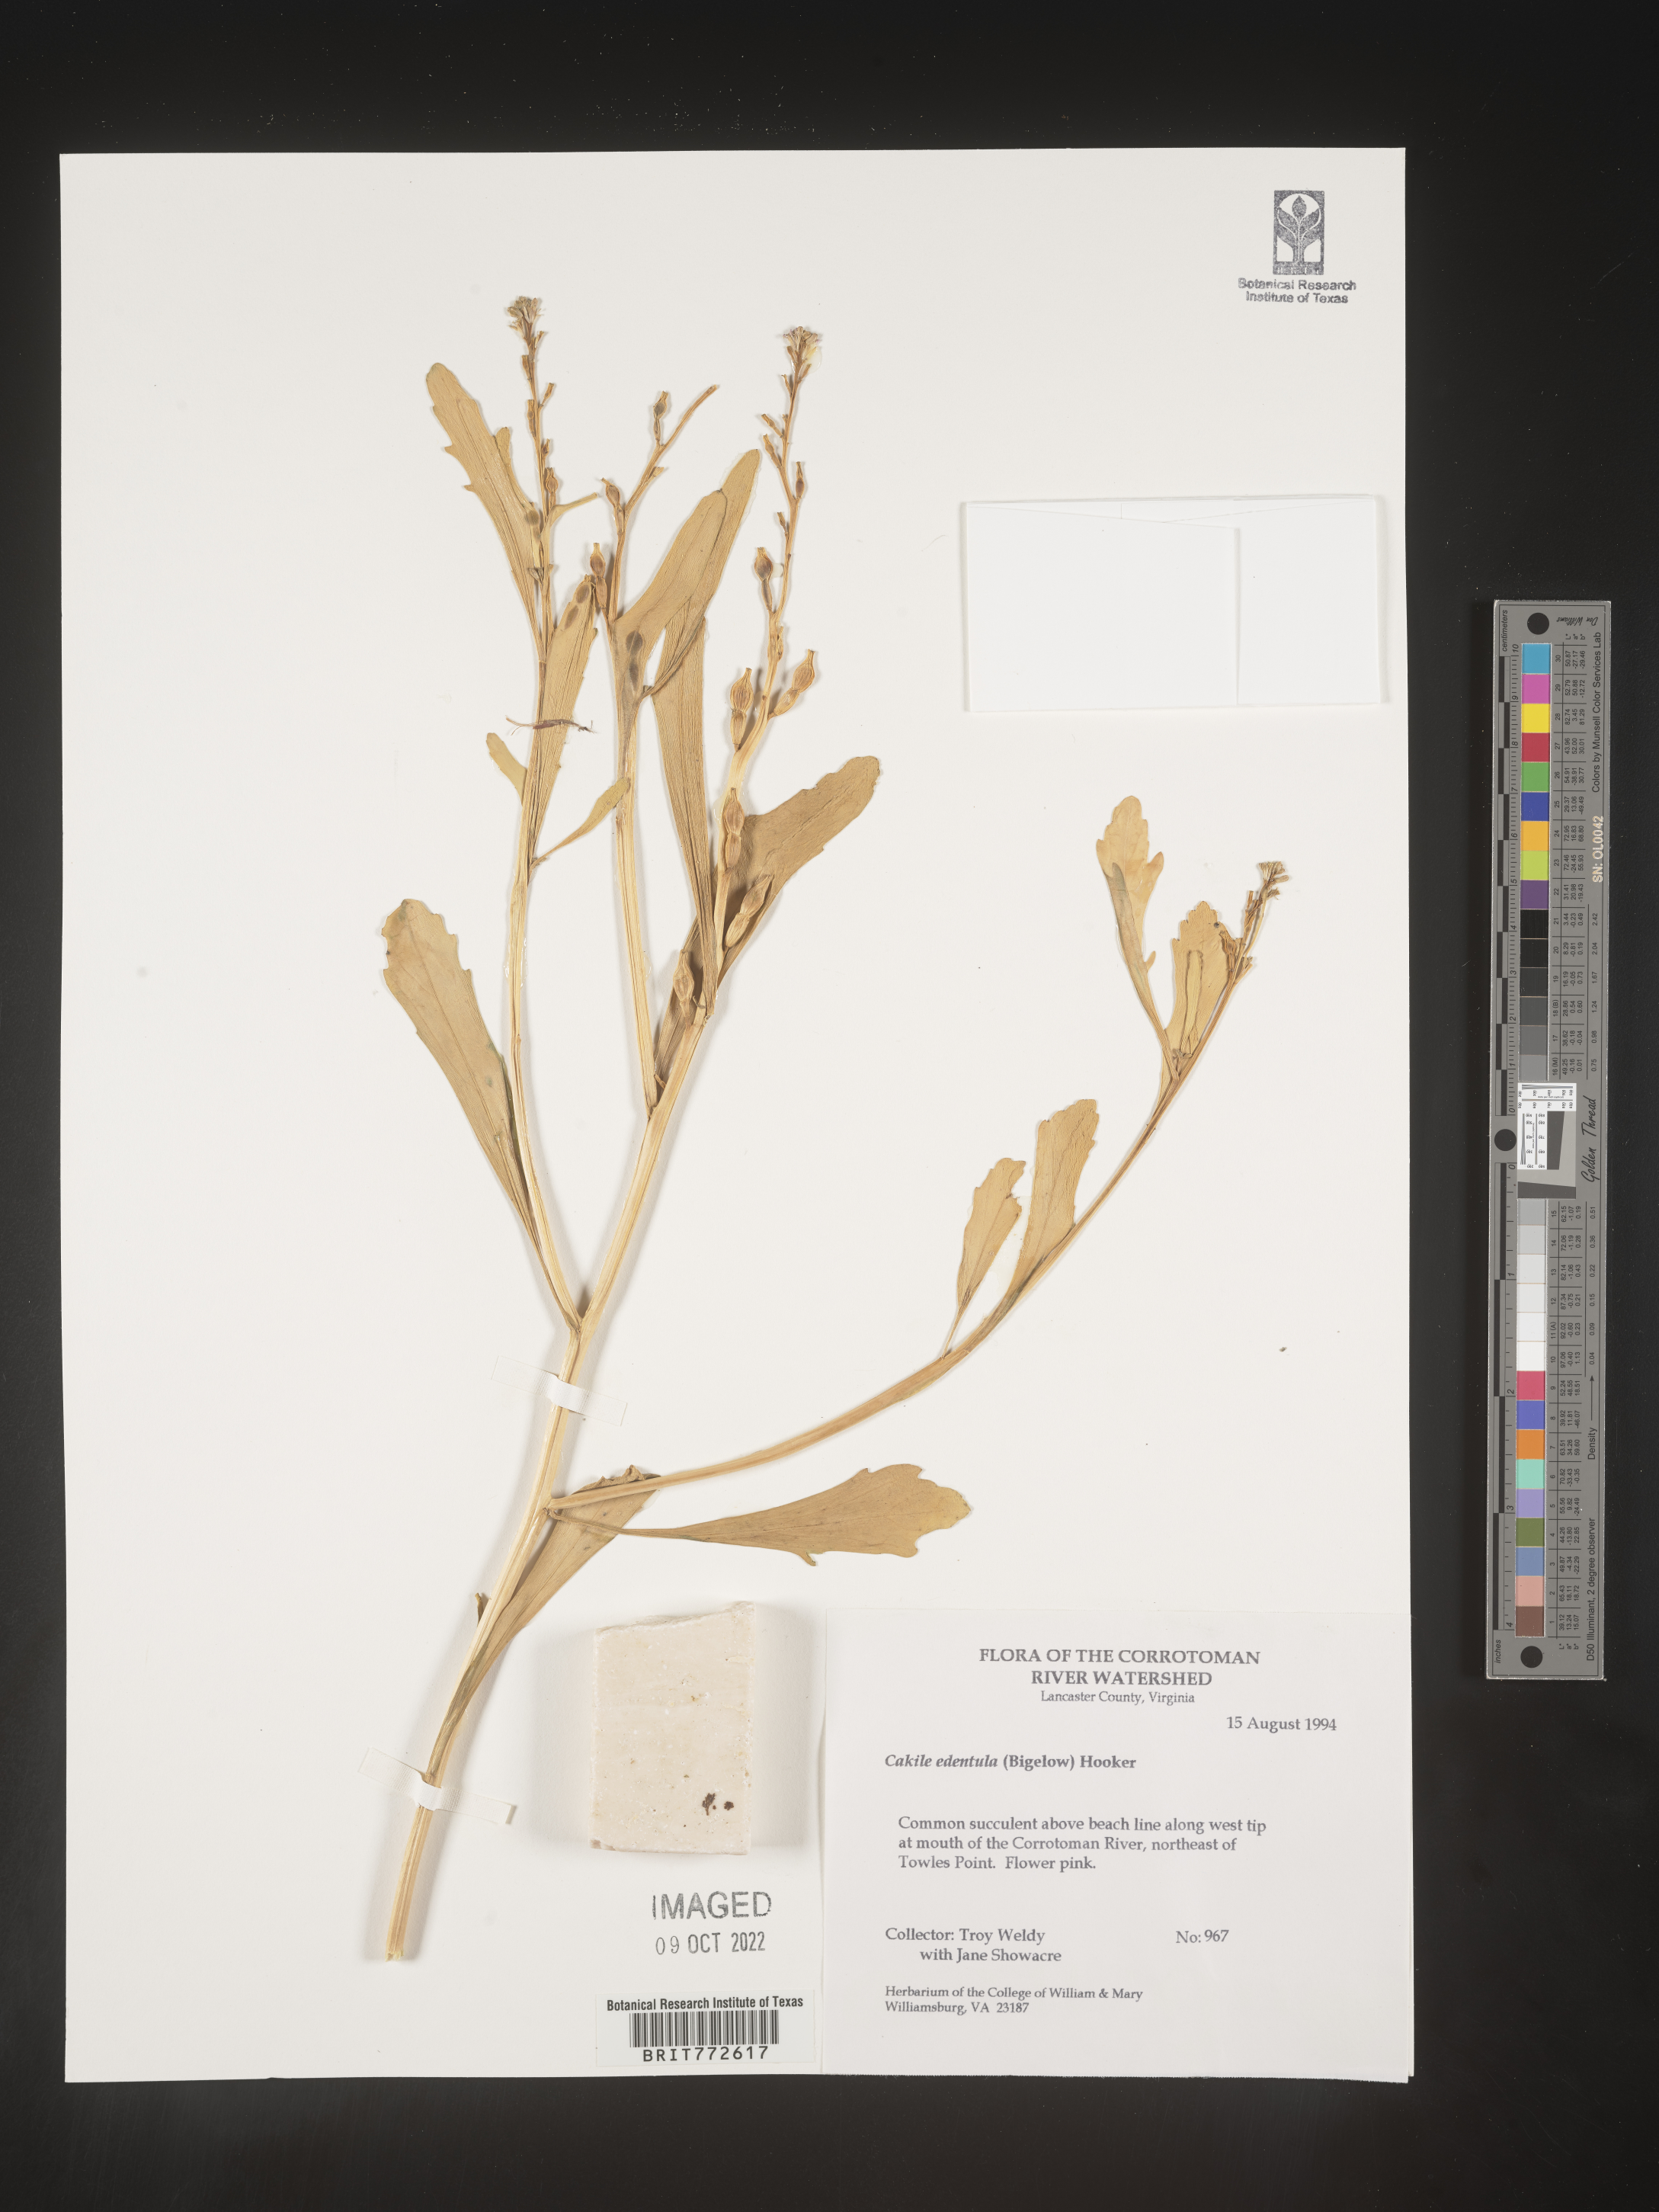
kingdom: Plantae
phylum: Tracheophyta
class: Magnoliopsida
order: Brassicales
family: Brassicaceae
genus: Cakile
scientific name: Cakile edentula
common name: American sea rocket
